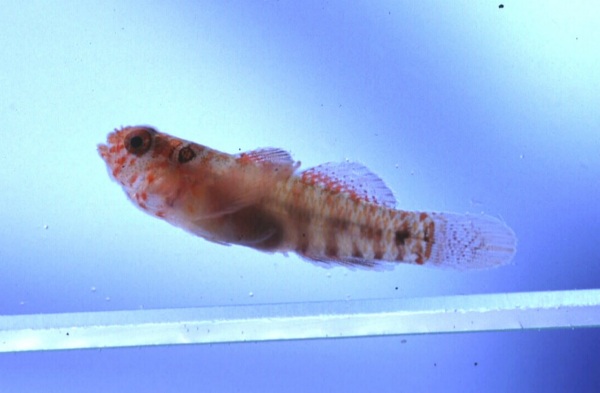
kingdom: Animalia
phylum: Chordata
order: Perciformes
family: Gobiidae
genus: Eviota
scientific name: Eviota sodwanaensis
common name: Sodwana dwarfgoby
